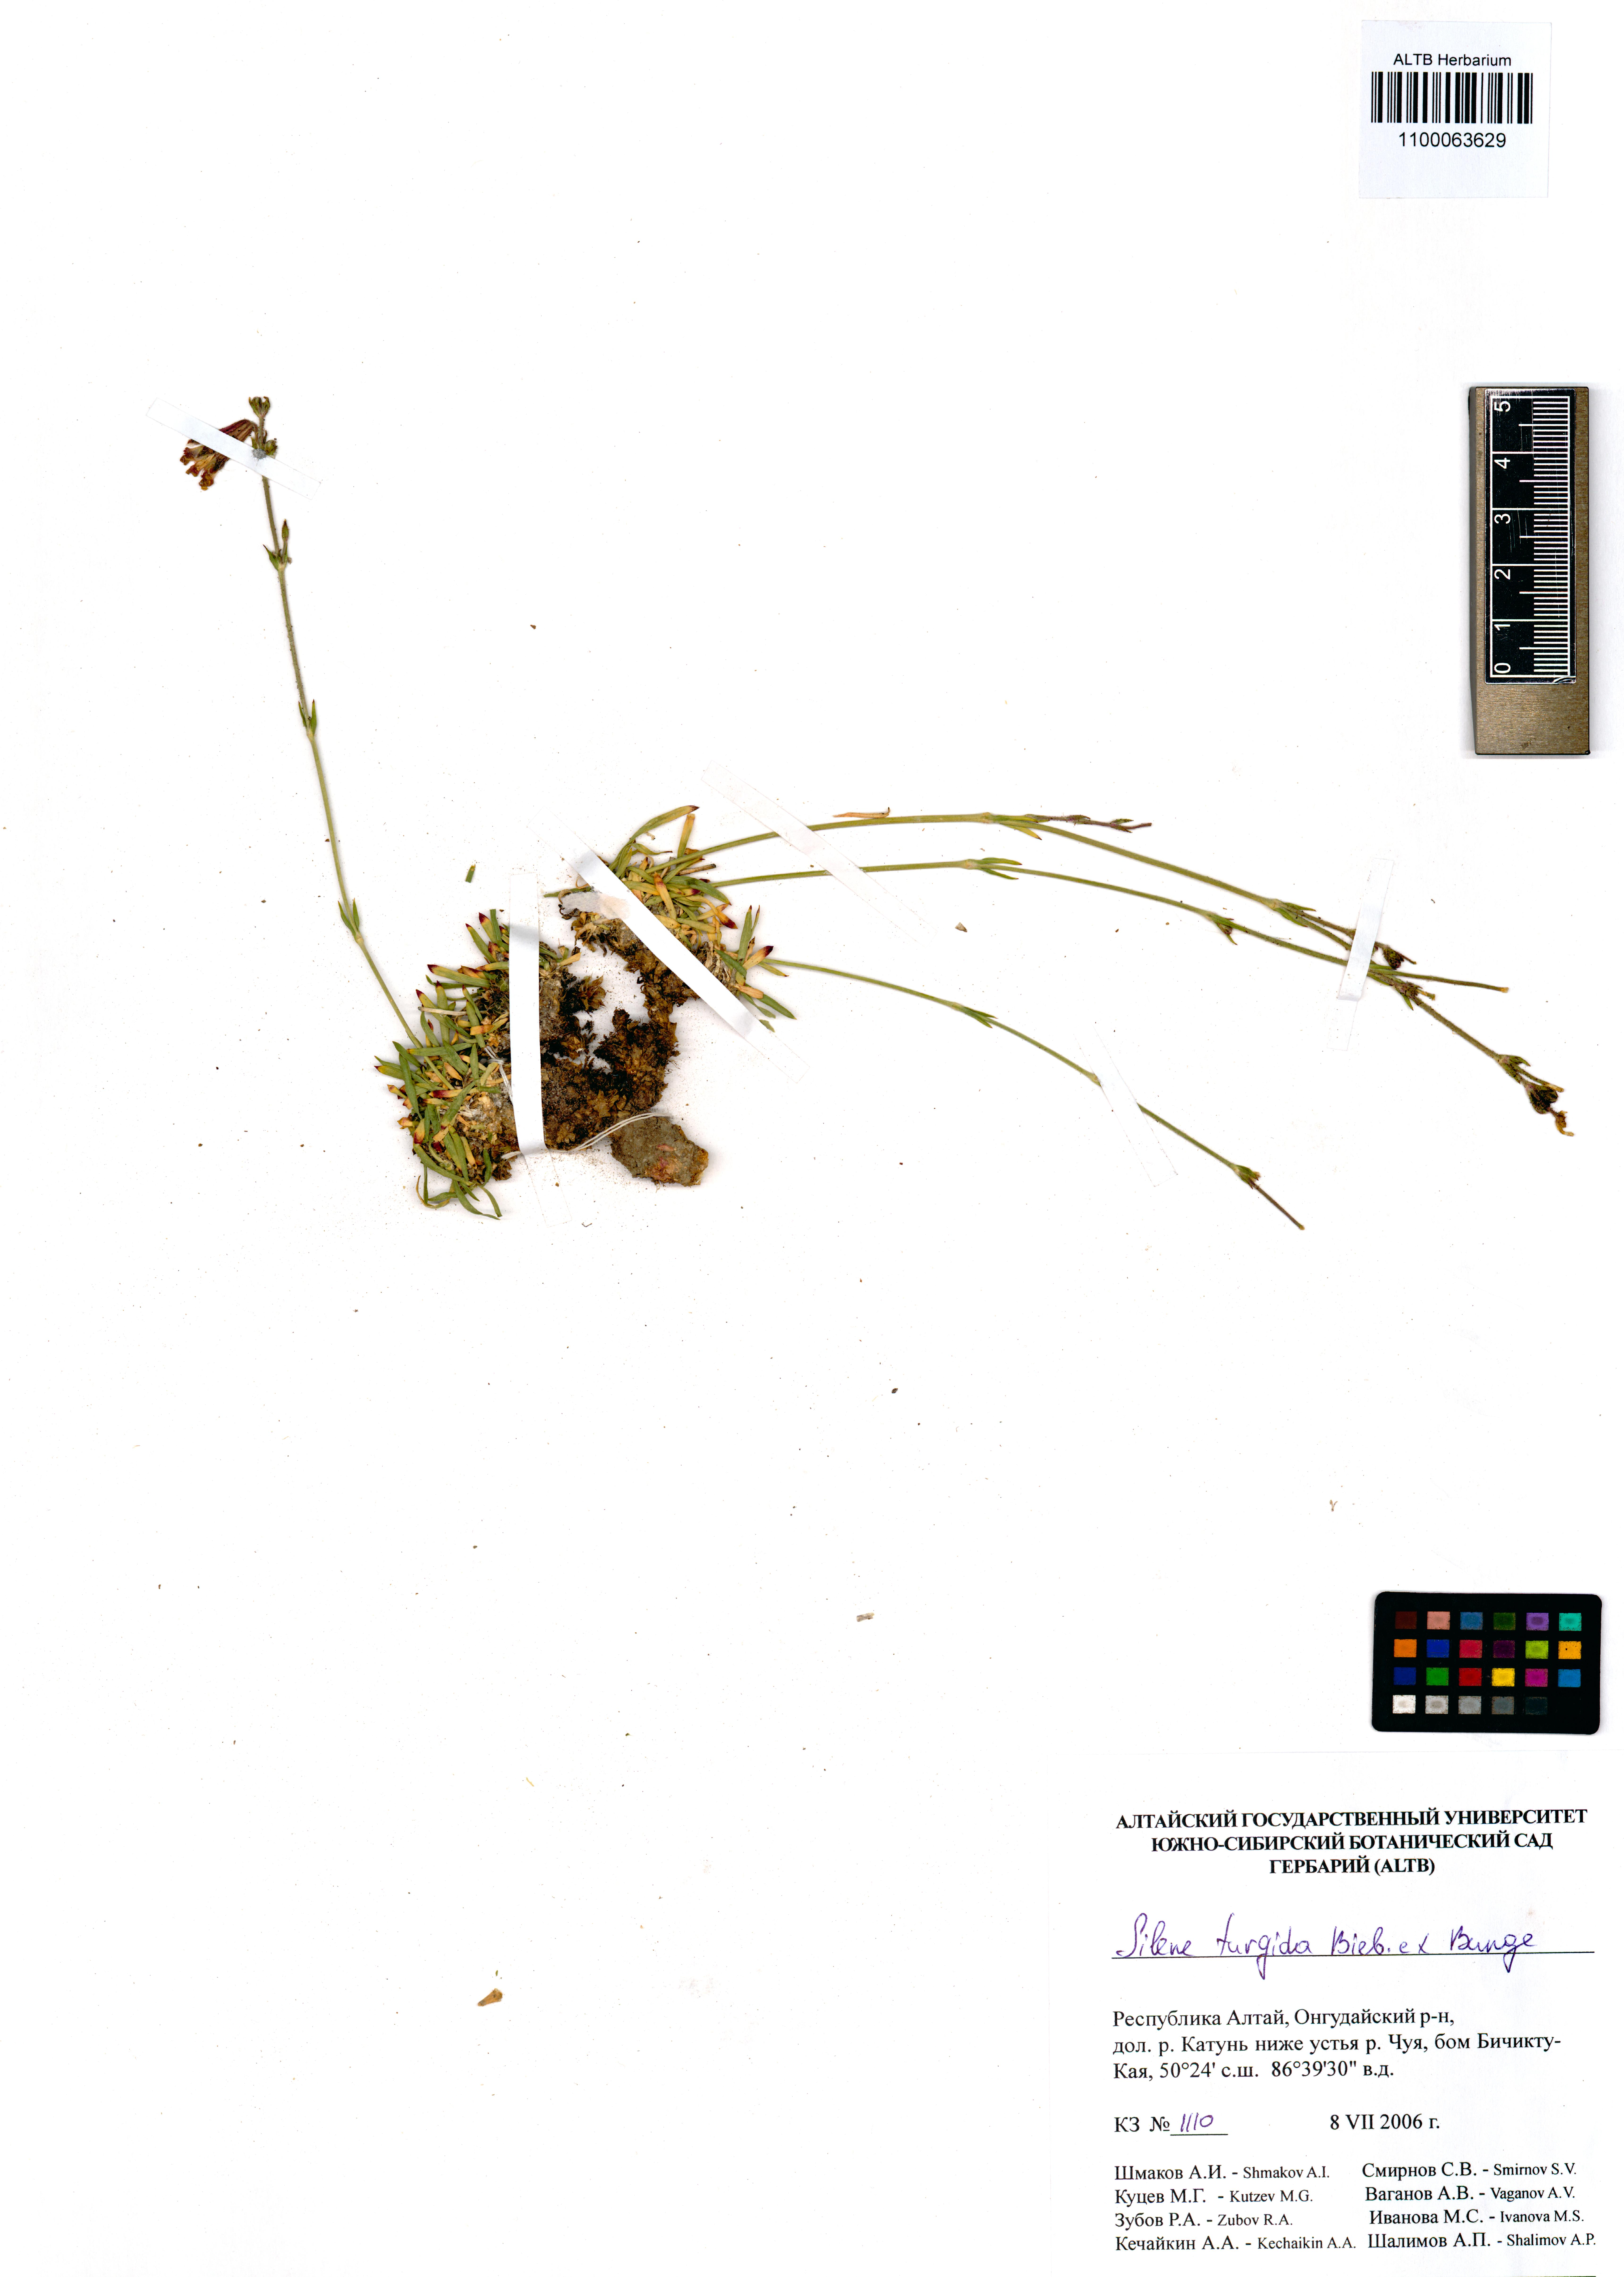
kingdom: Plantae
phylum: Tracheophyta
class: Magnoliopsida
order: Caryophyllales
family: Caryophyllaceae
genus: Silene
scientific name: Silene turgida
